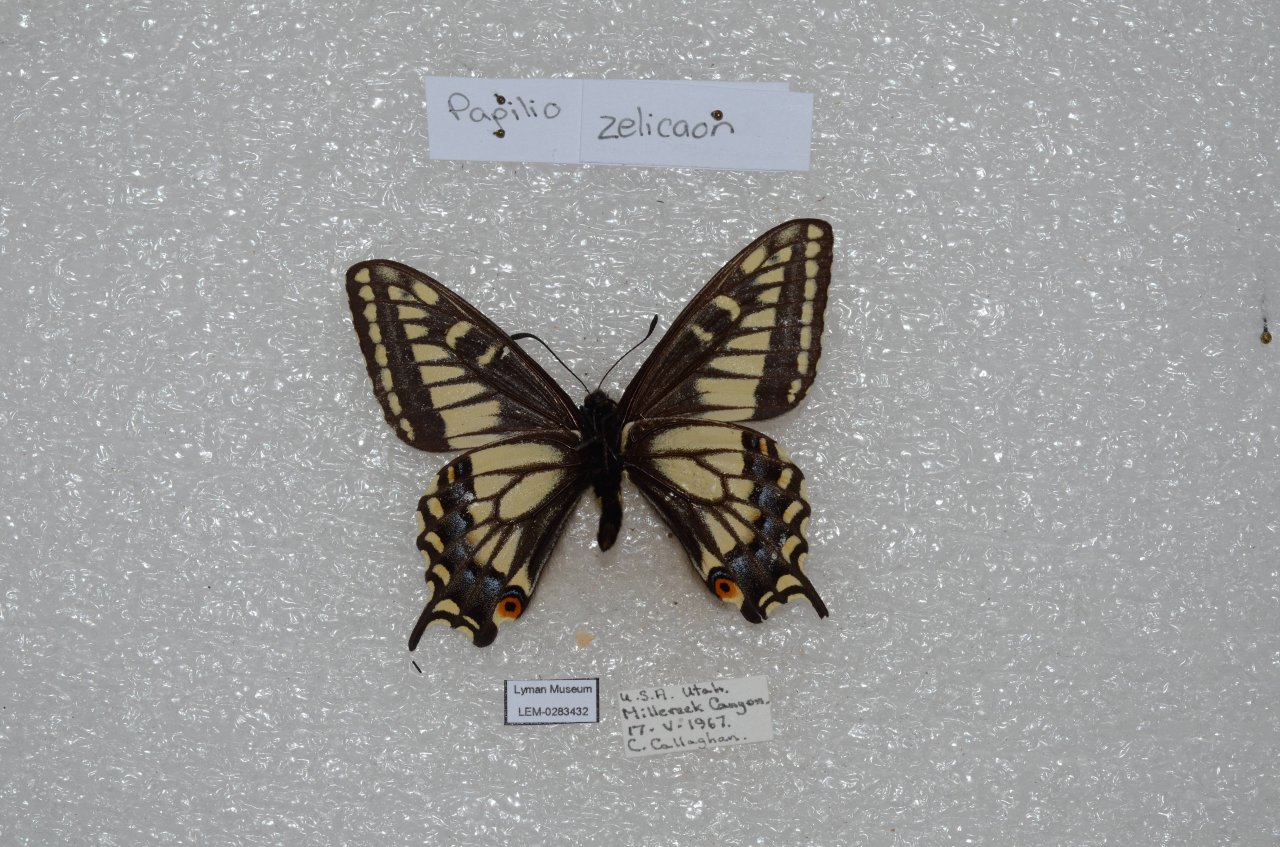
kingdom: Animalia
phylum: Arthropoda
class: Insecta
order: Lepidoptera
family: Papilionidae
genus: Papilio
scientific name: Papilio zelicaon
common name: Anise Swallowtail
